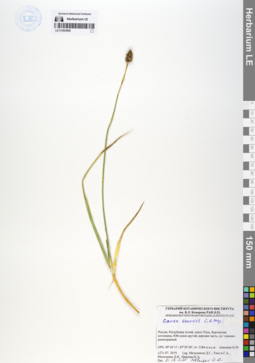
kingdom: Plantae
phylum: Tracheophyta
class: Liliopsida
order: Poales
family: Cyperaceae
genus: Carex
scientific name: Carex enervis
